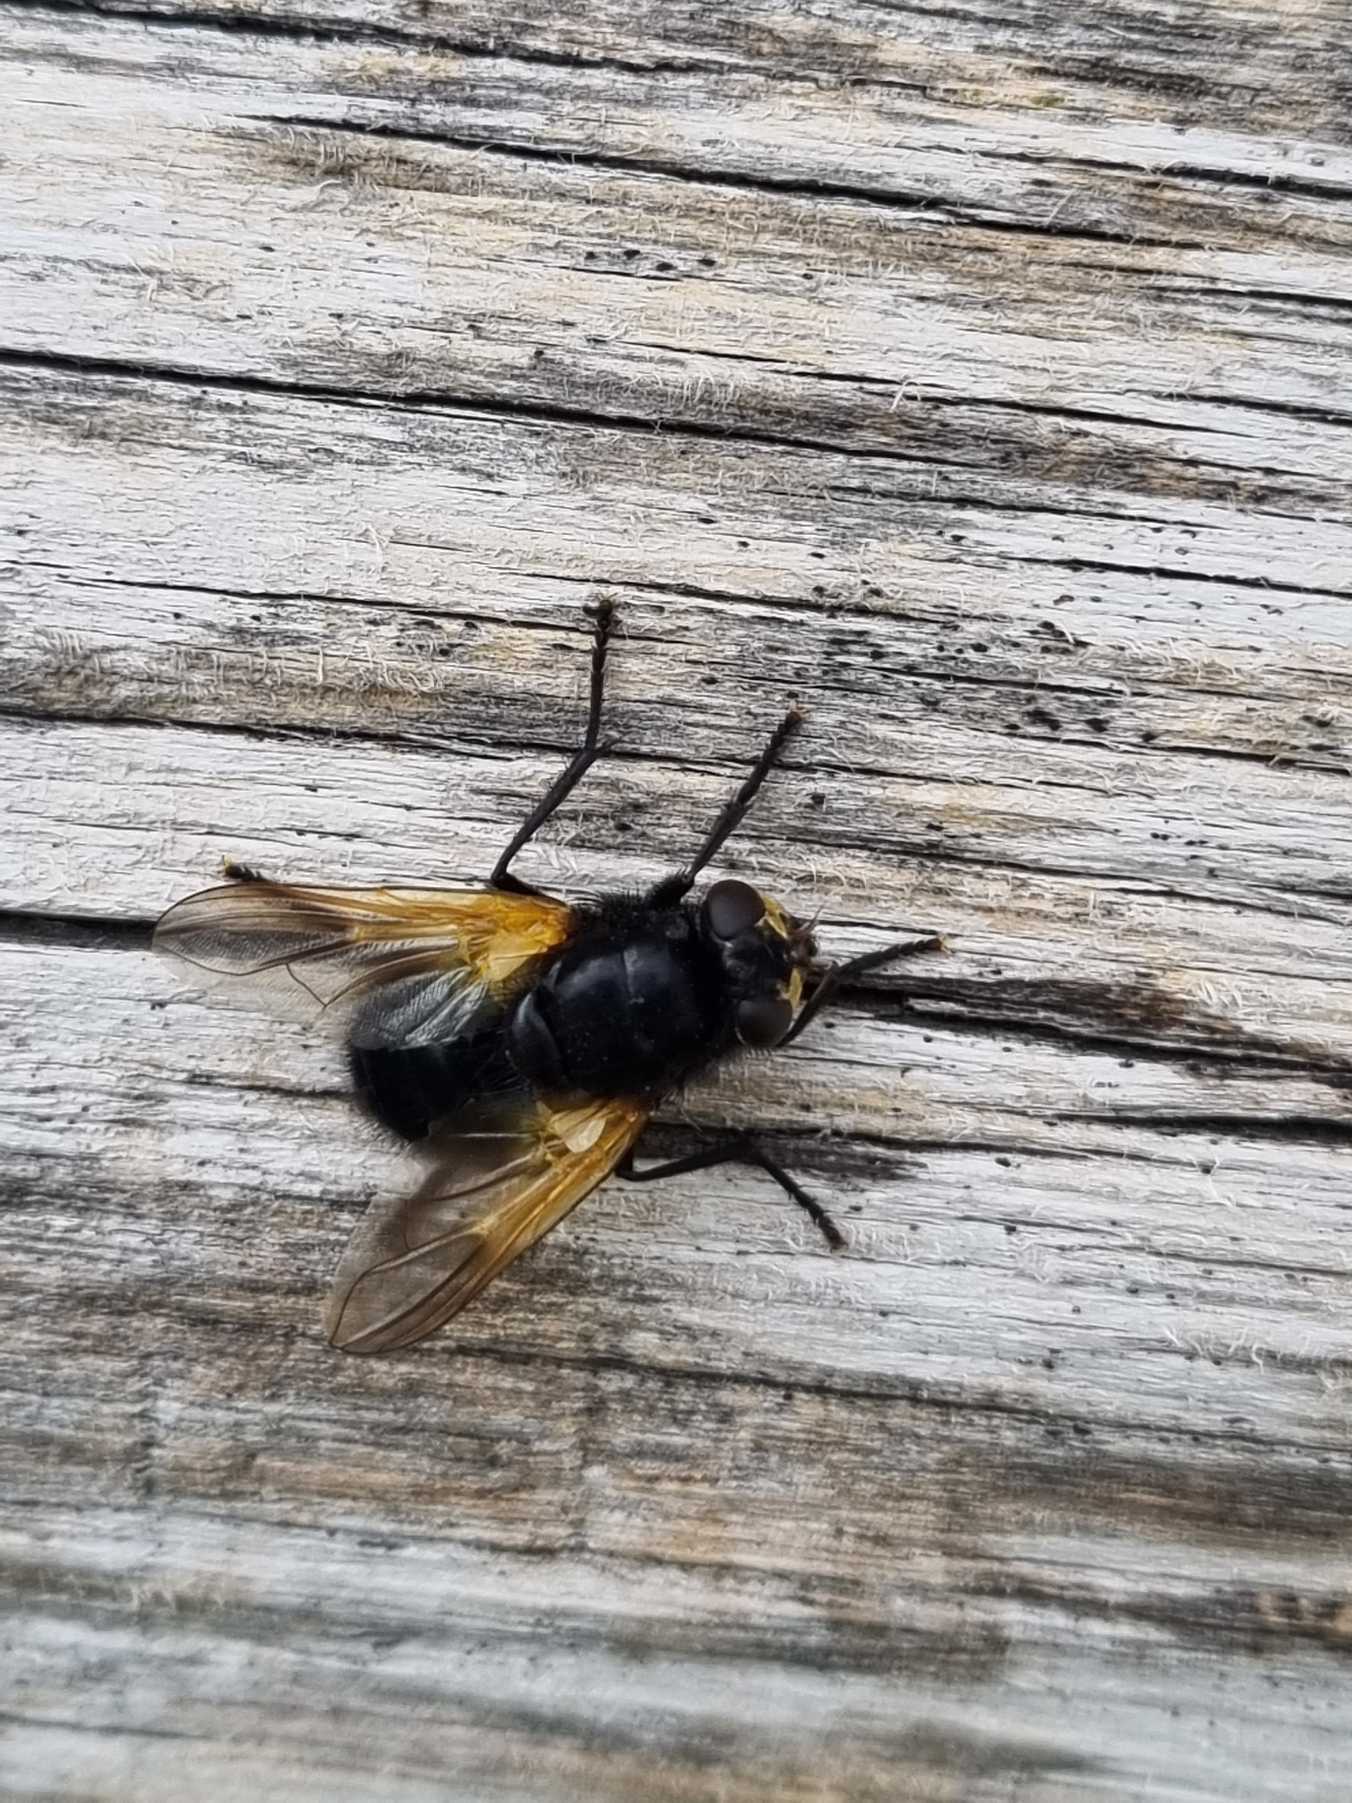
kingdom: Animalia
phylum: Arthropoda
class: Insecta
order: Diptera
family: Muscidae
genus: Mesembrina
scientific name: Mesembrina meridiana
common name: Gulvinget flue
